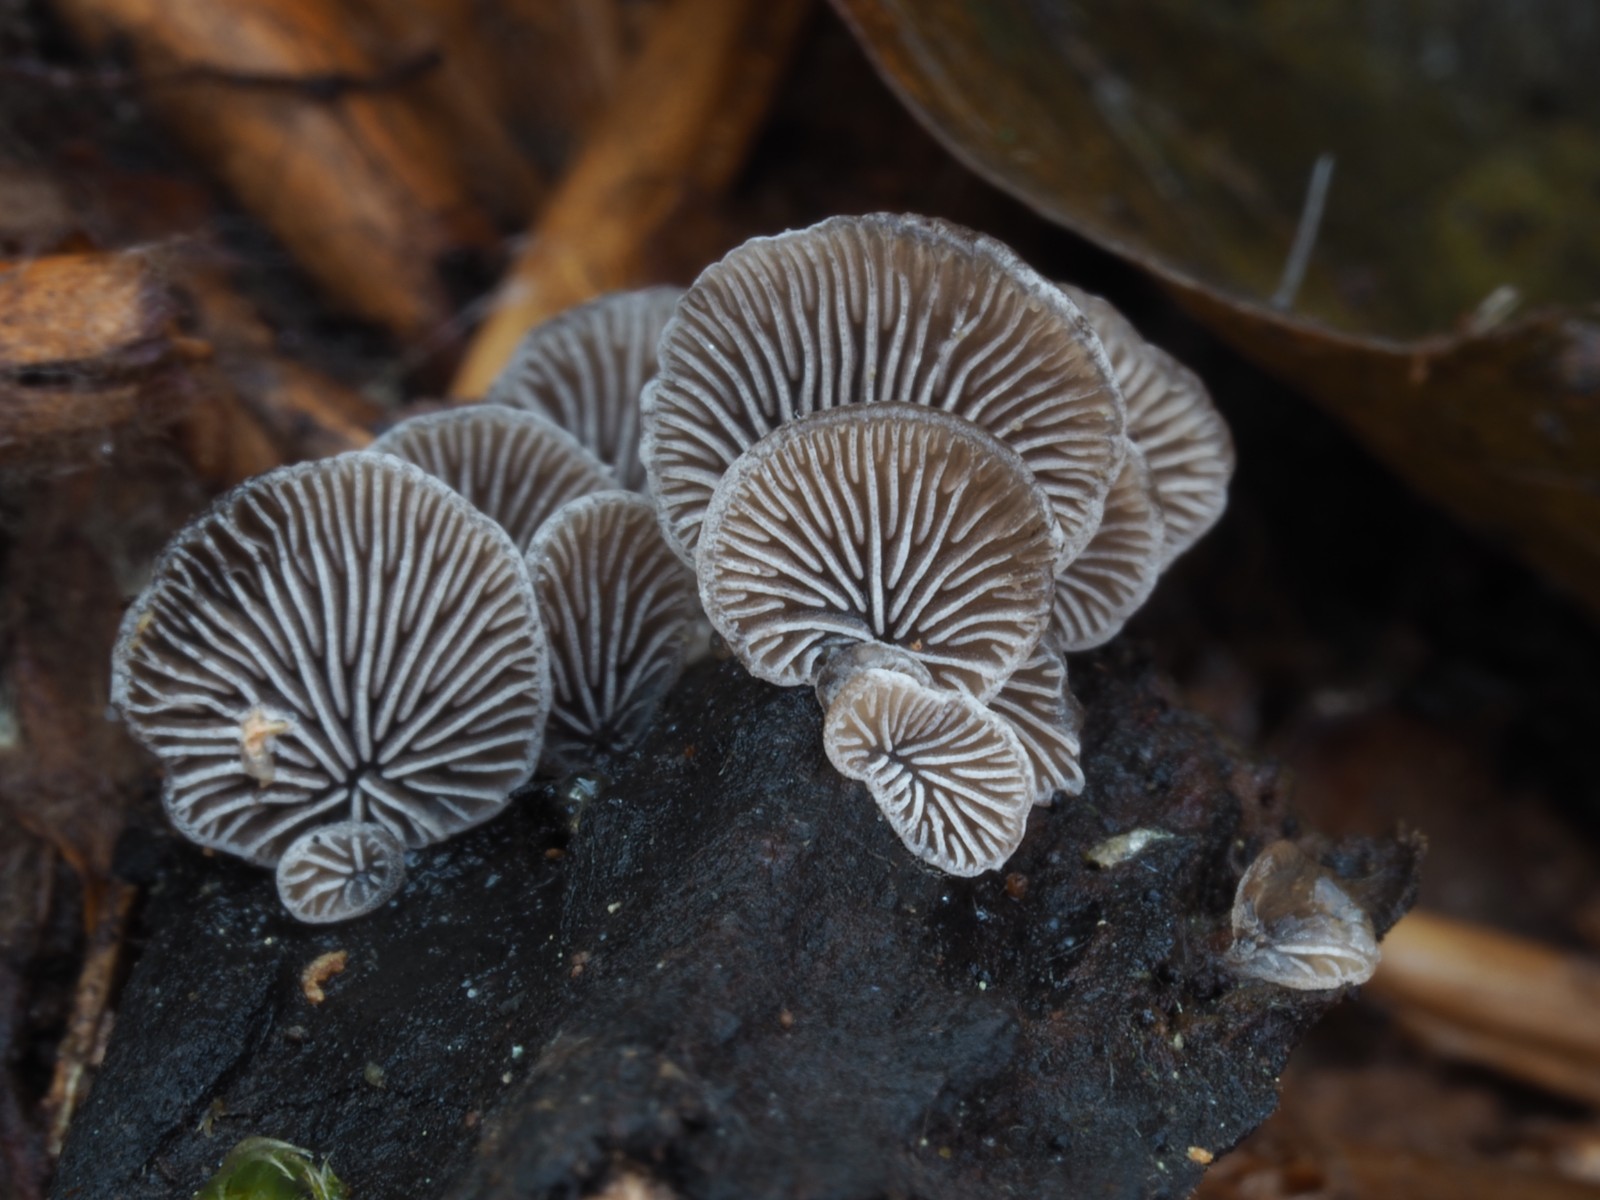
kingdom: Fungi
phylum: Basidiomycota
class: Agaricomycetes
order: Agaricales
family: Pleurotaceae
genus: Resupinatus
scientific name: Resupinatus trichotis
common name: mørkfiltet barkhat
